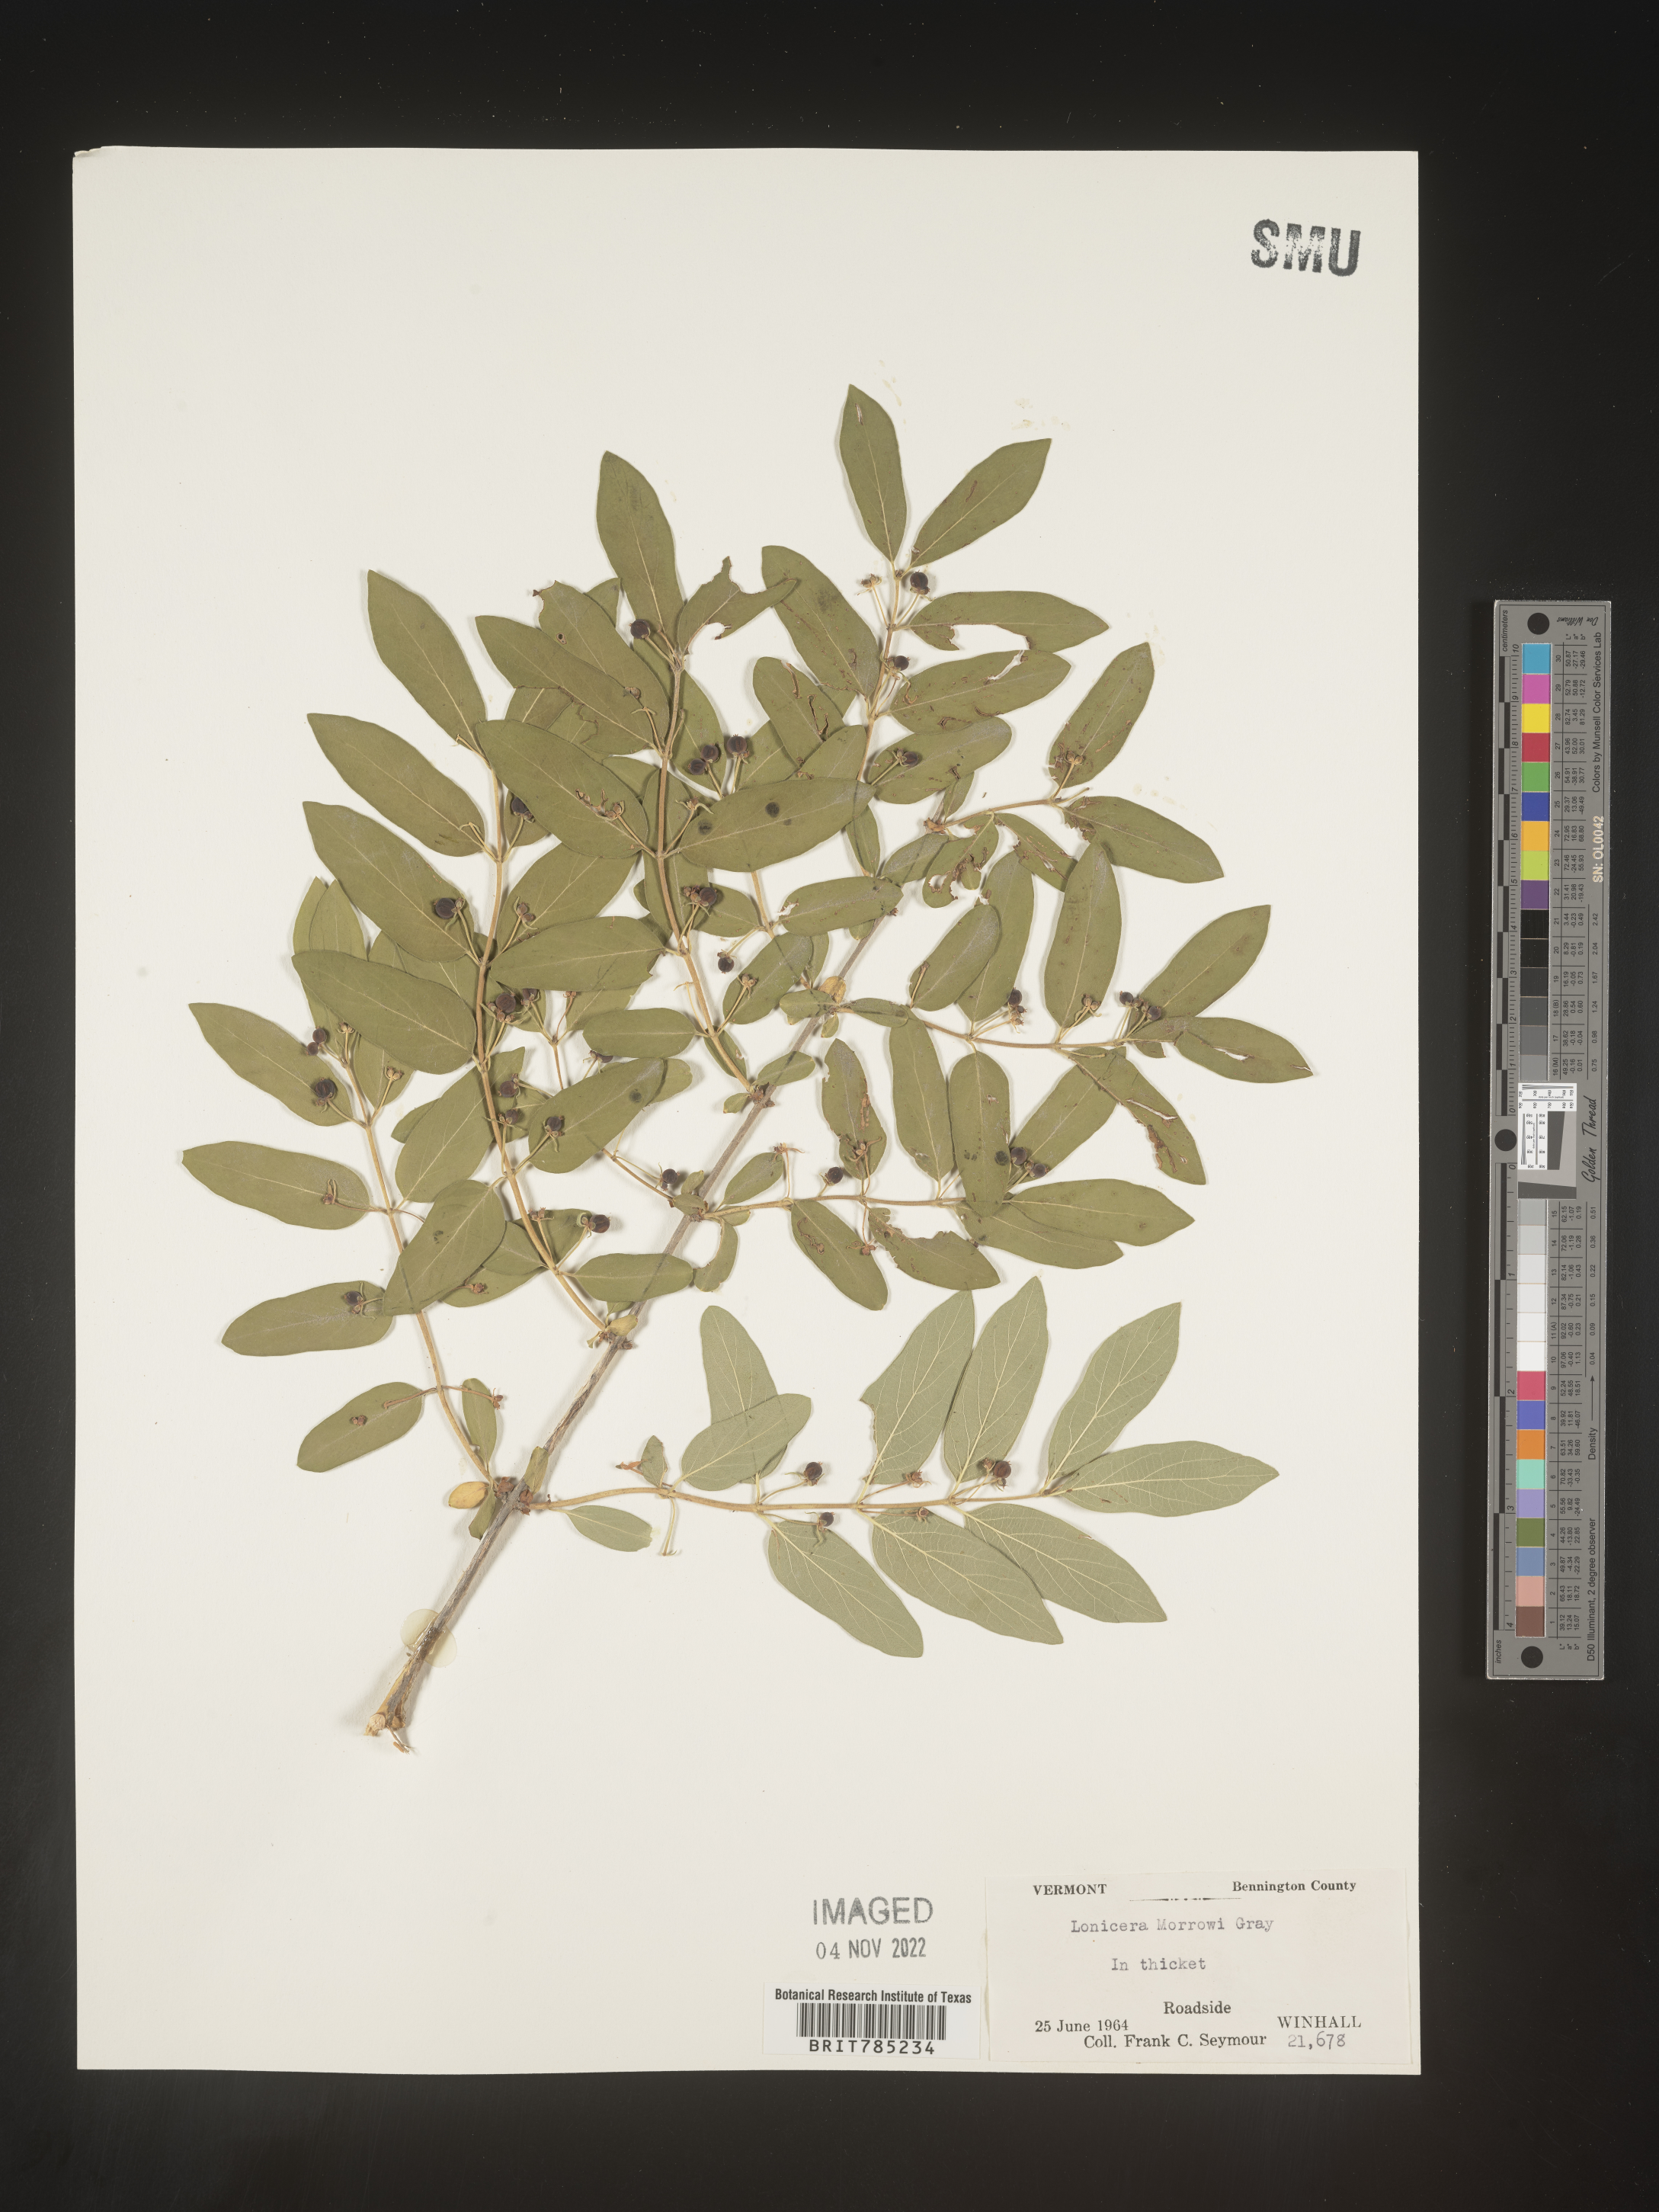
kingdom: Plantae
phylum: Tracheophyta
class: Magnoliopsida
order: Dipsacales
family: Caprifoliaceae
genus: Lonicera
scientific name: Lonicera
